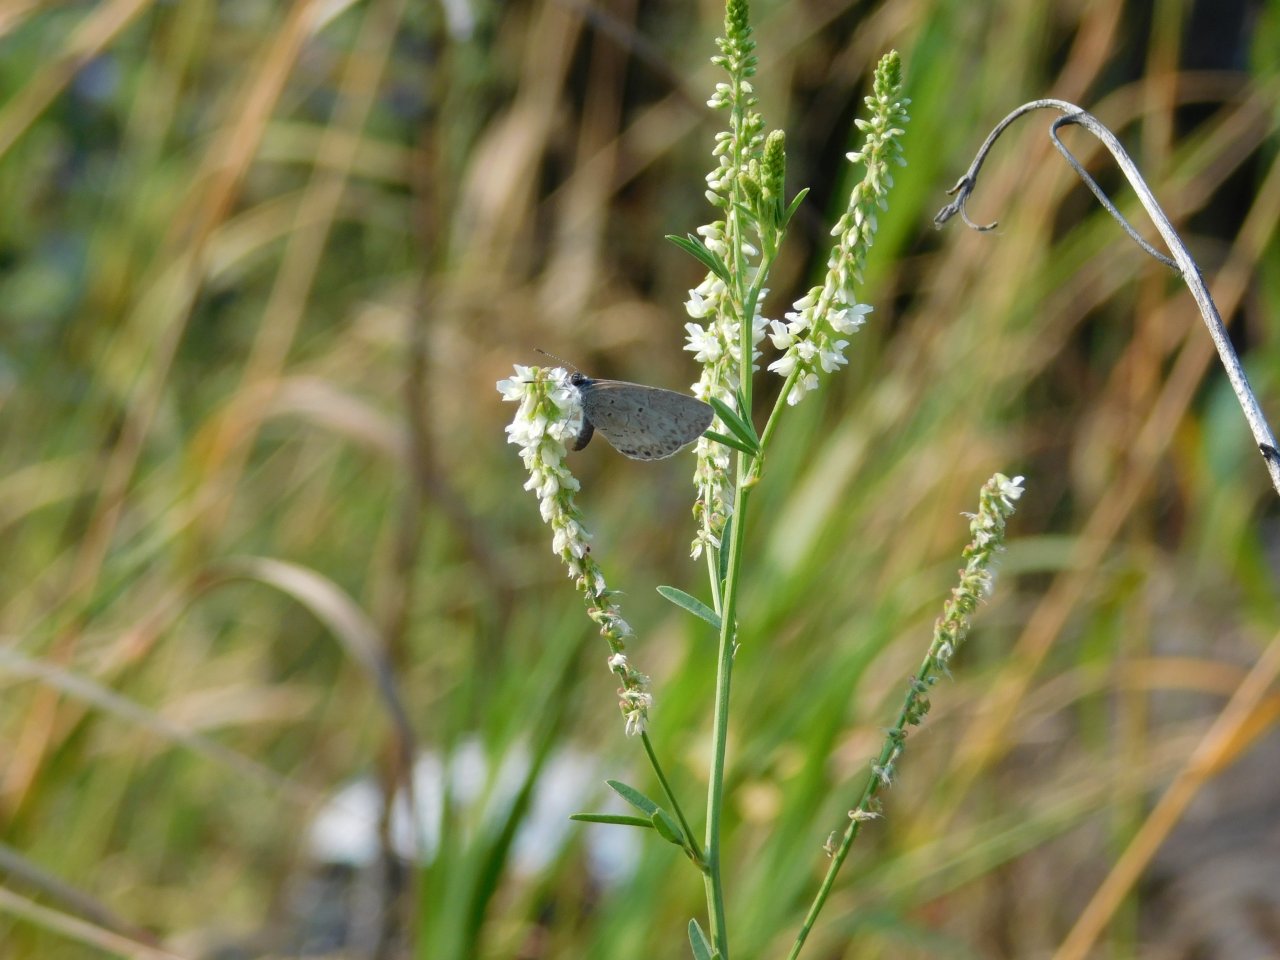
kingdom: Animalia
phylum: Arthropoda
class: Insecta
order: Lepidoptera
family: Lycaenidae
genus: Celastrina
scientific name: Celastrina lucia
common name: Northern Spring Azure
